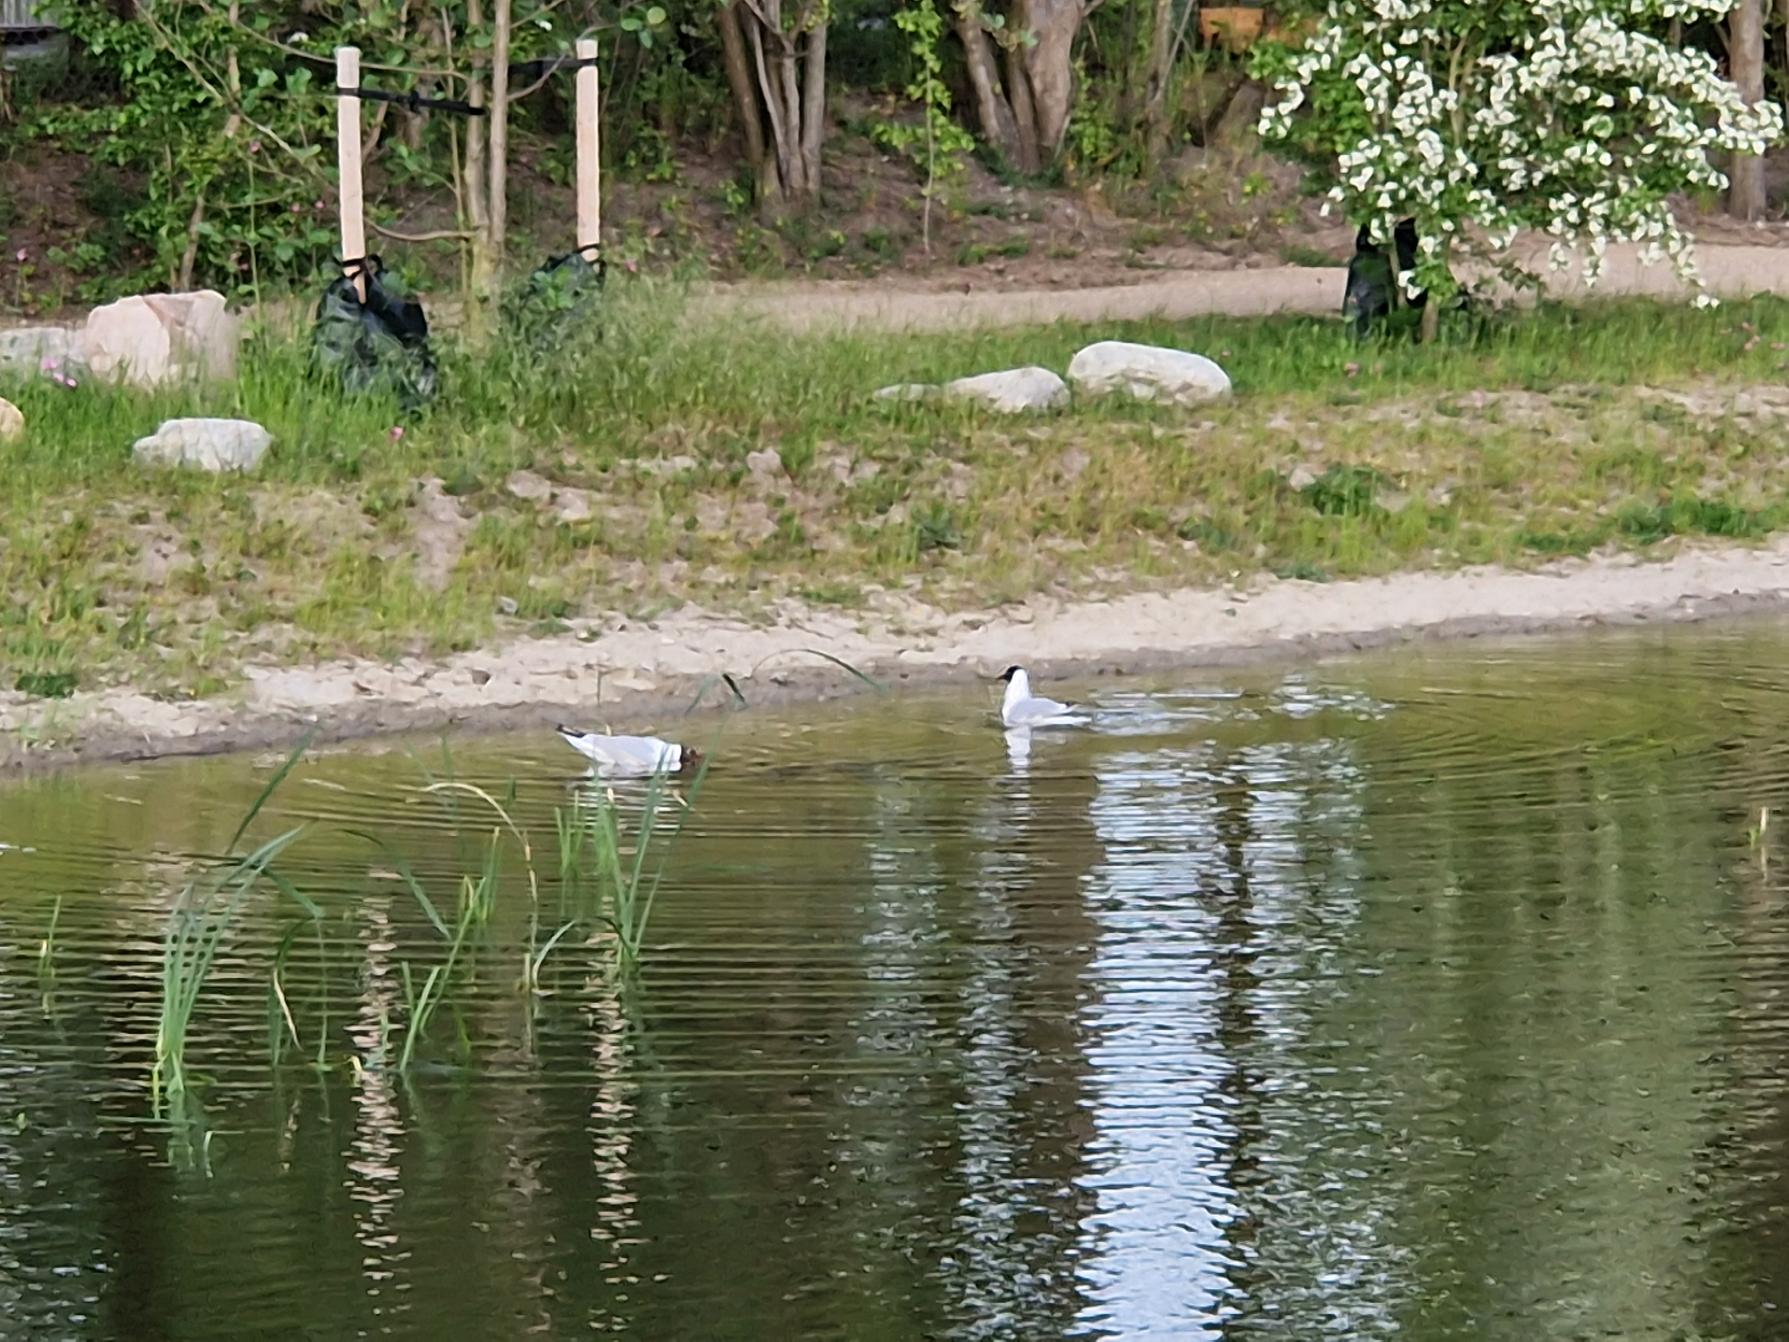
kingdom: Animalia
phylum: Chordata
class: Aves
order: Charadriiformes
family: Laridae
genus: Chroicocephalus
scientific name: Chroicocephalus ridibundus
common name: Hættemåge
